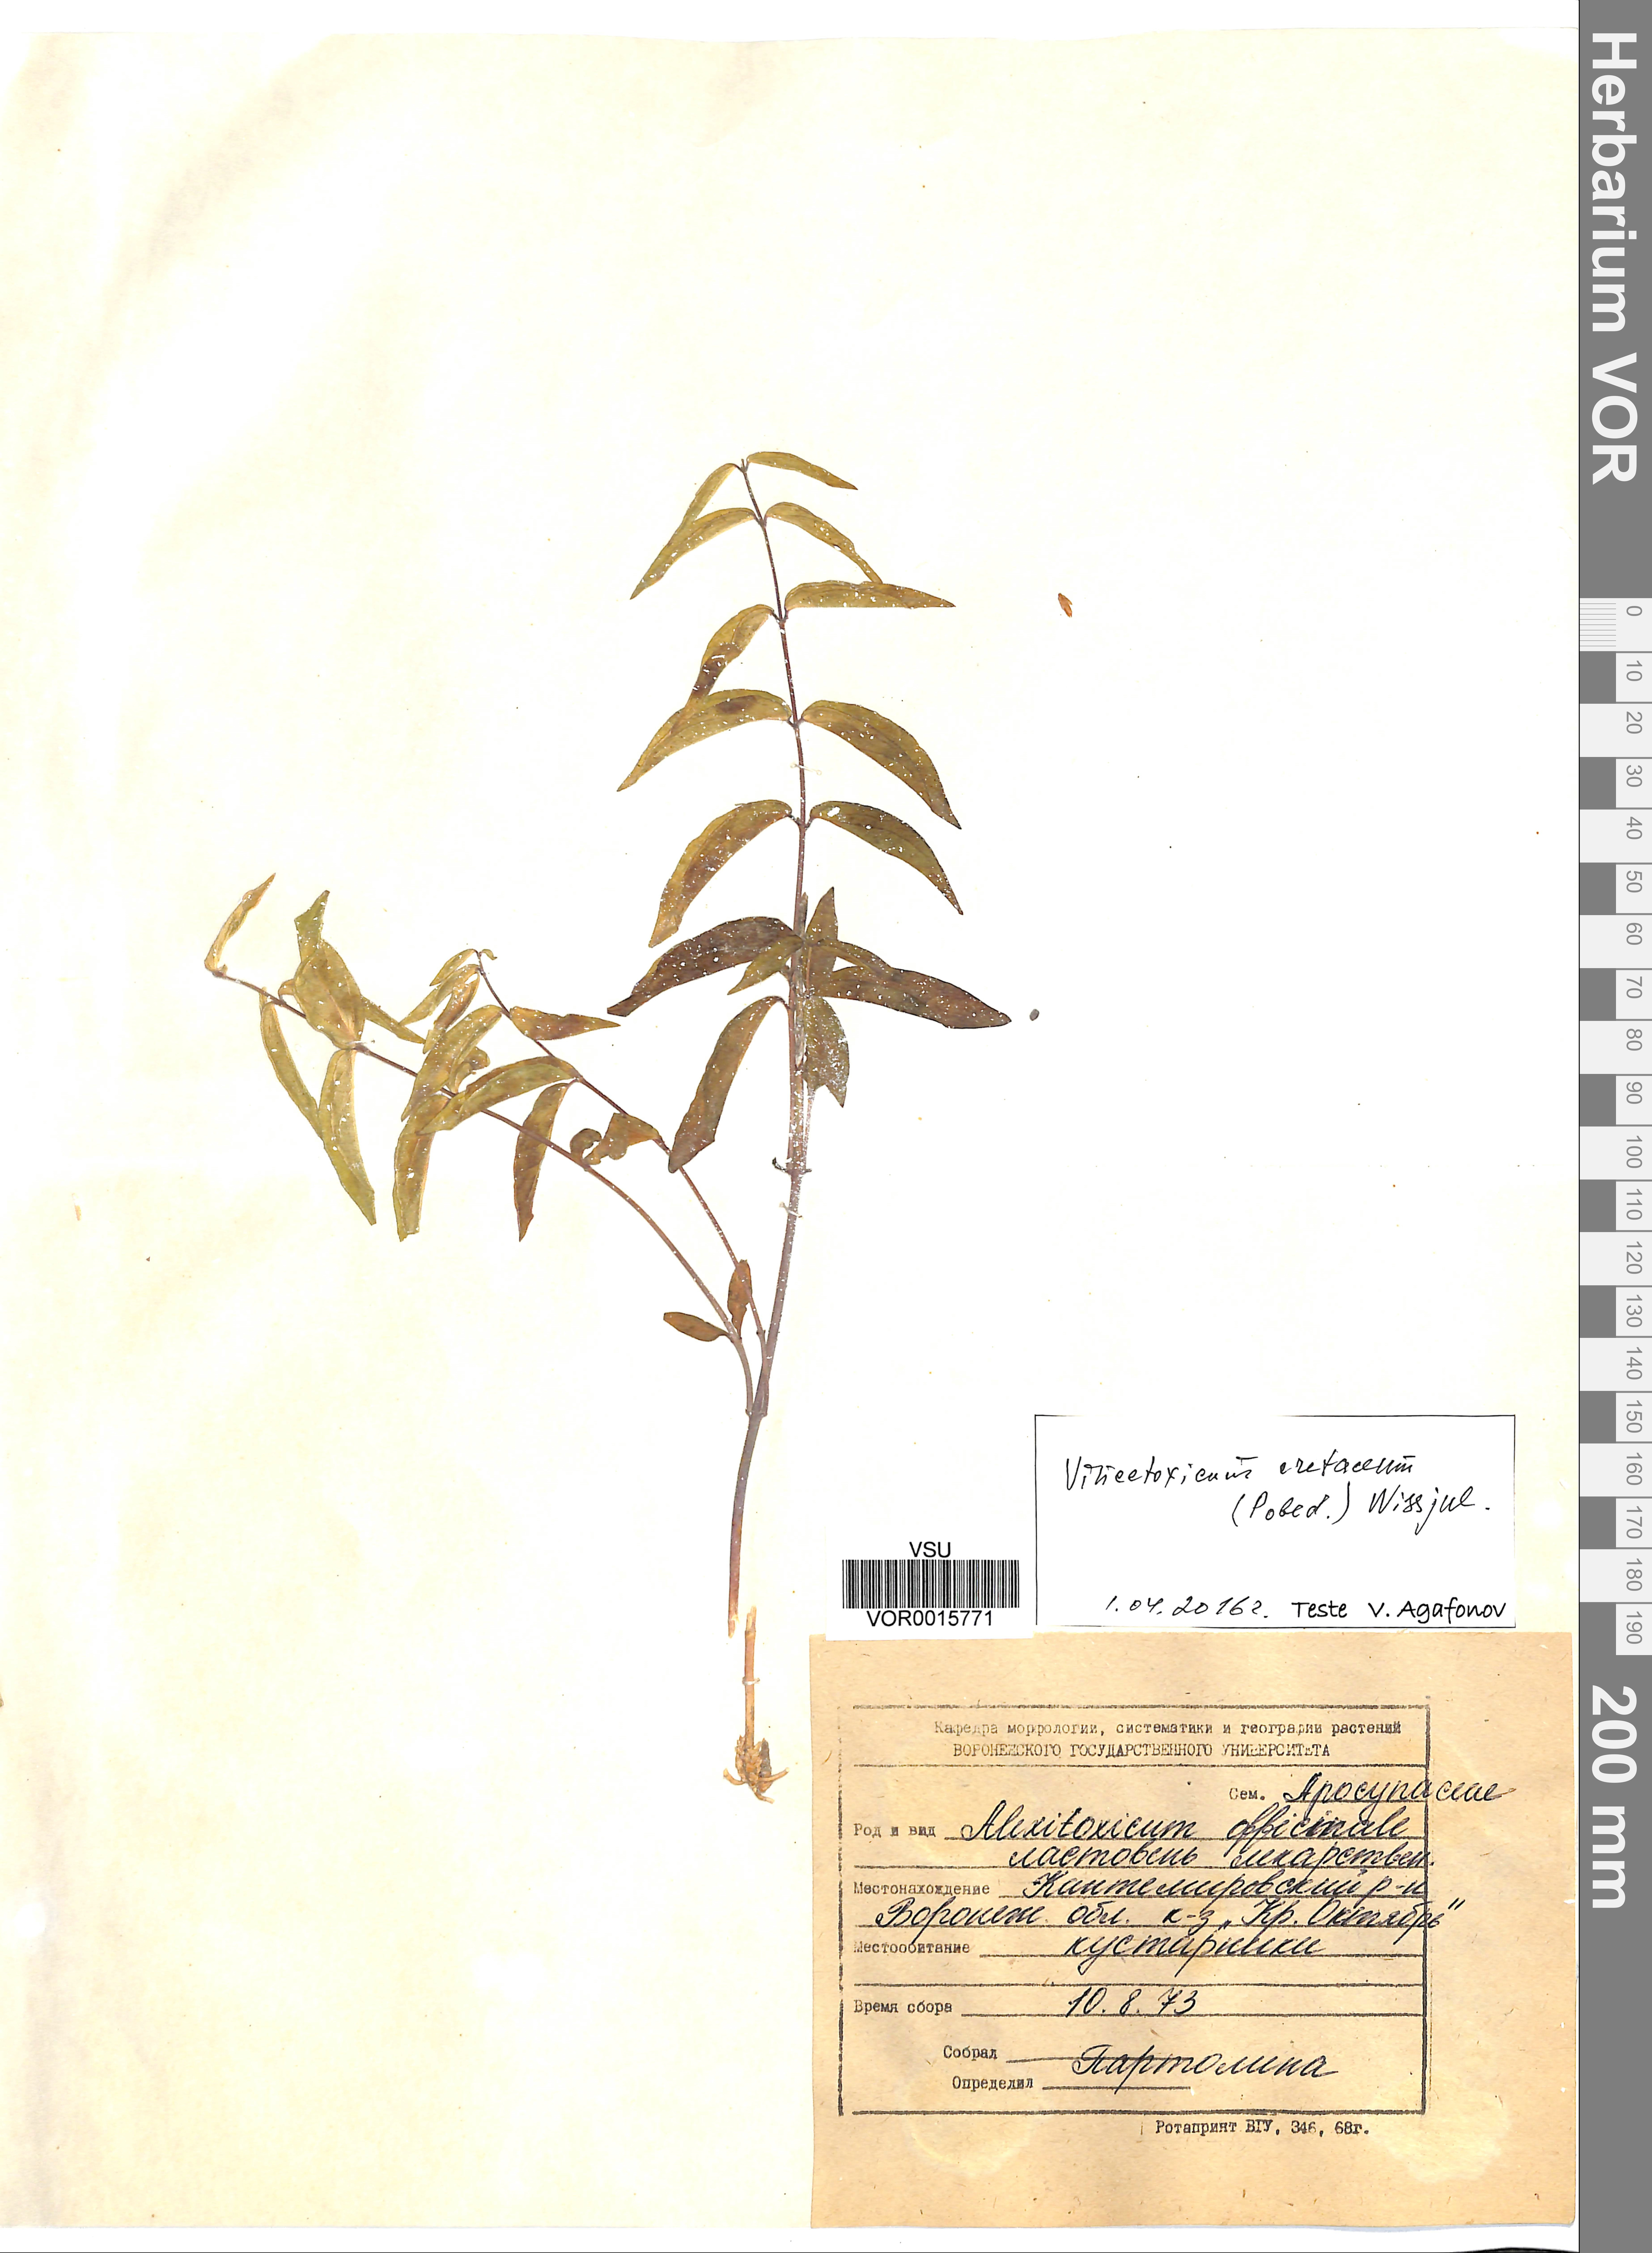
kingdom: Plantae
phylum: Tracheophyta
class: Magnoliopsida
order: Gentianales
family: Apocynaceae
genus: Vincetoxicum
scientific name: Vincetoxicum hirundinaria
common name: White swallowwort
